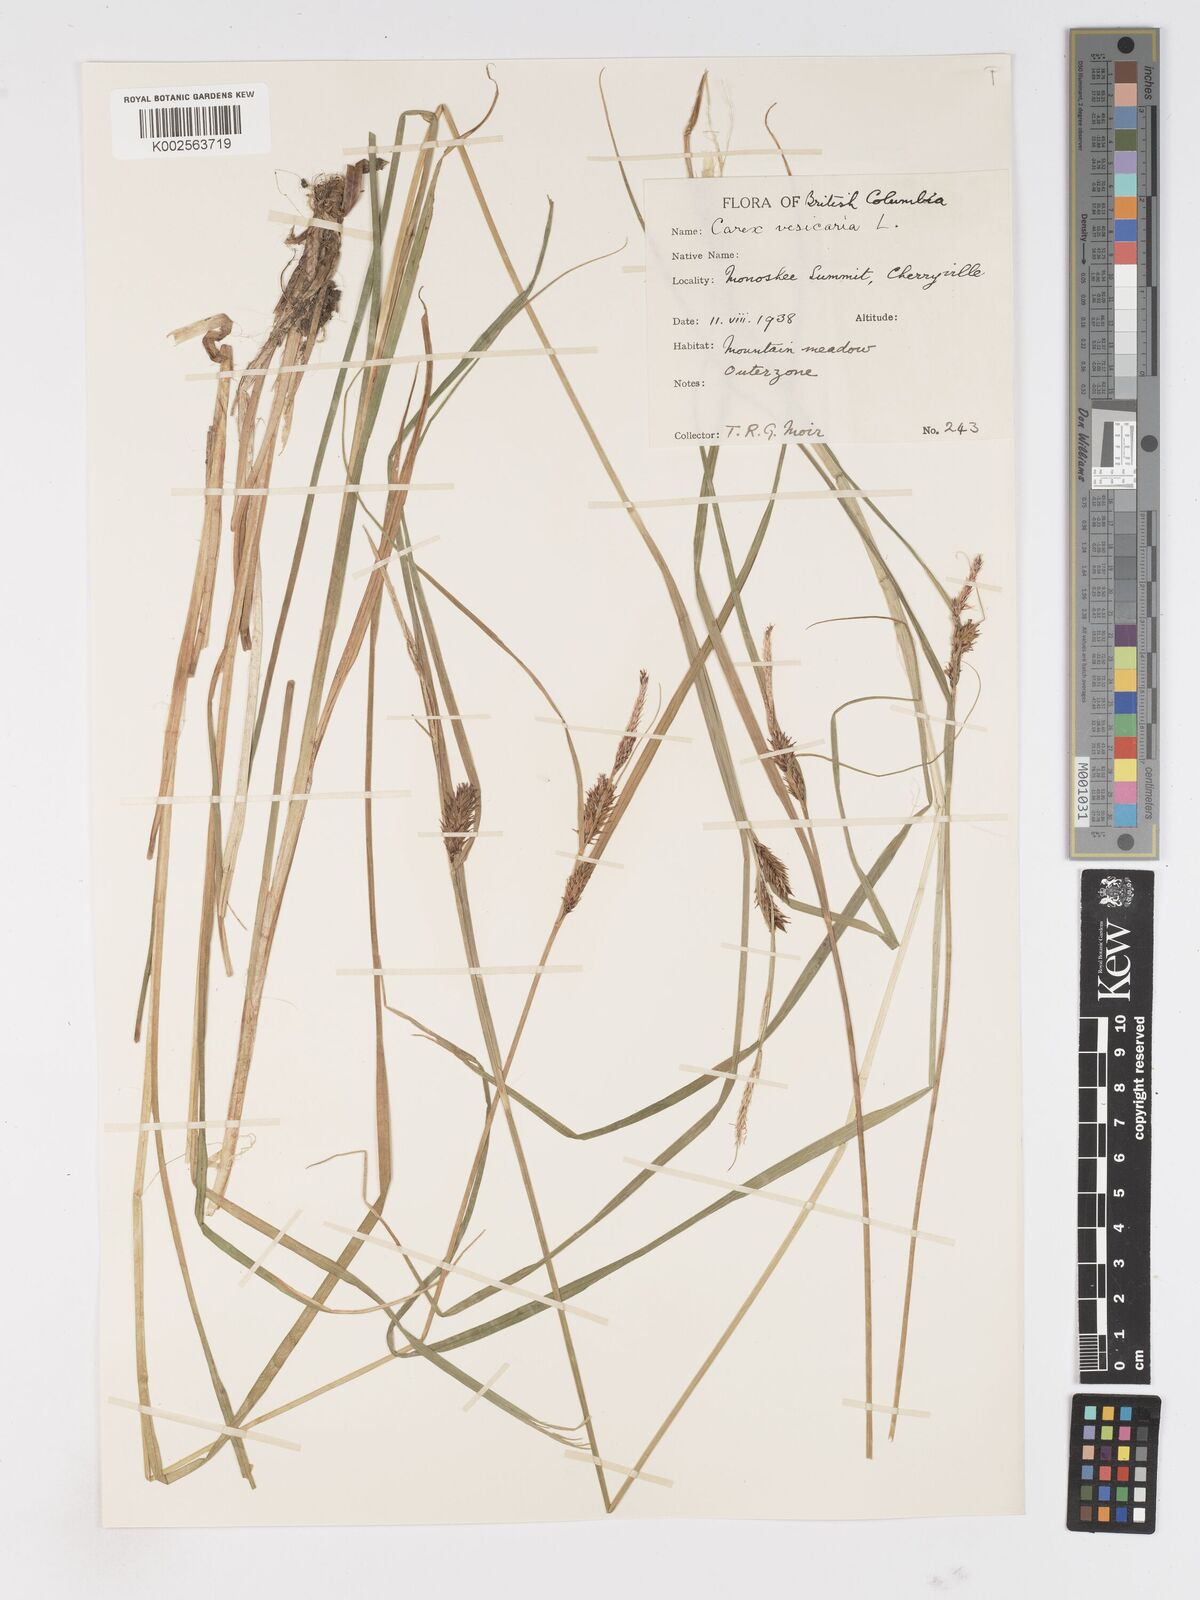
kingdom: Plantae
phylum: Tracheophyta
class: Liliopsida
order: Poales
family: Cyperaceae
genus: Carex
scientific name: Carex vesicaria
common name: Bladder-sedge
